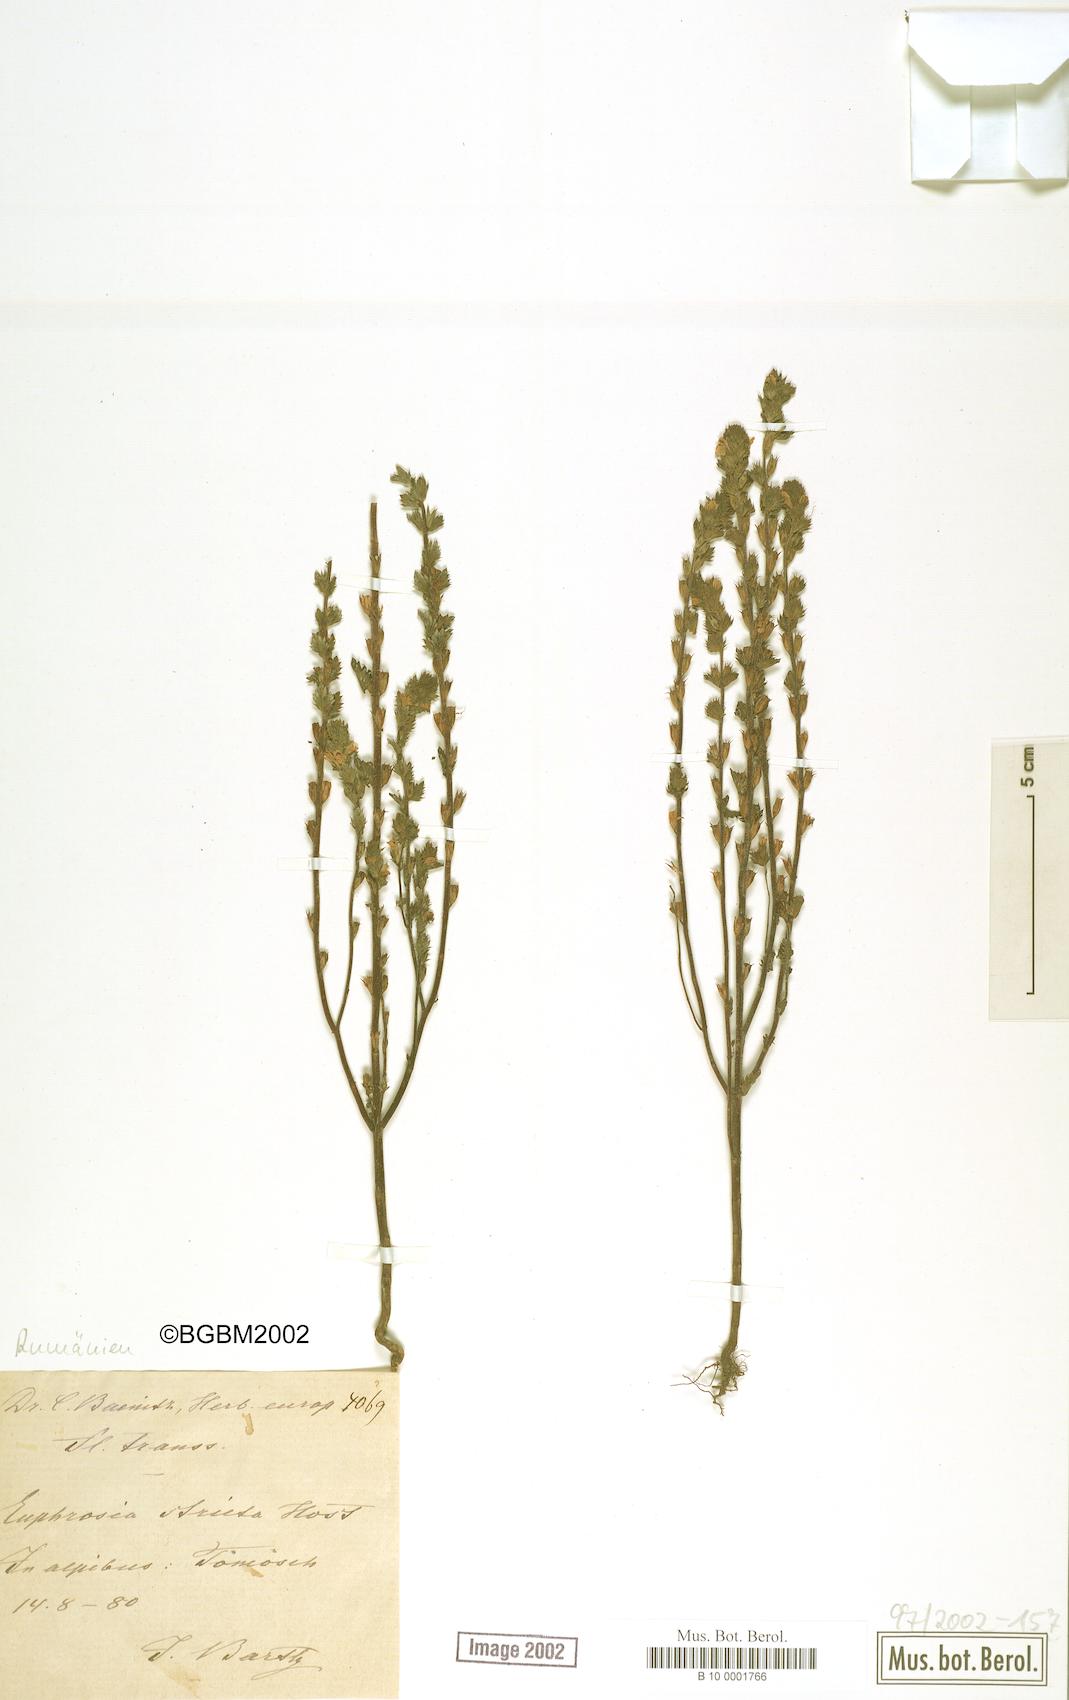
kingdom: Plantae
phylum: Tracheophyta
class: Magnoliopsida
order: Lamiales
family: Orobanchaceae
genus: Euphrasia
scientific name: Euphrasia stricta
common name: Drug eyebright
